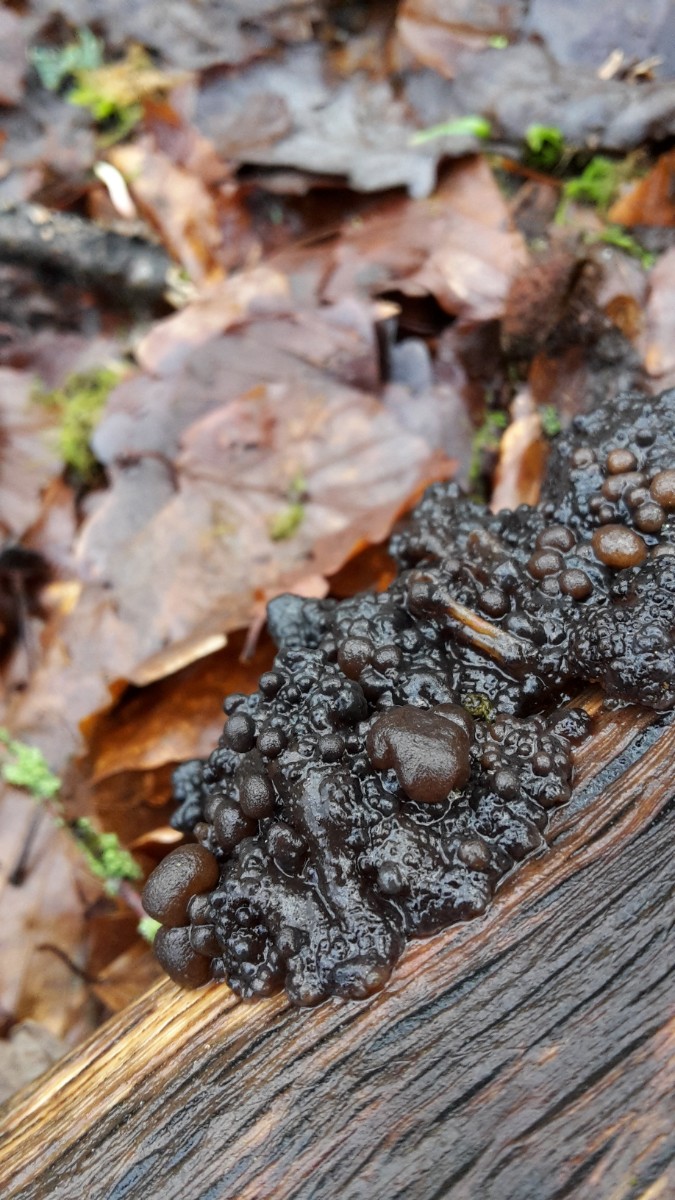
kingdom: Fungi
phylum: Basidiomycota
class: Tremellomycetes
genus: Heteromycophaga
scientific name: Heteromycophaga glandulosae
